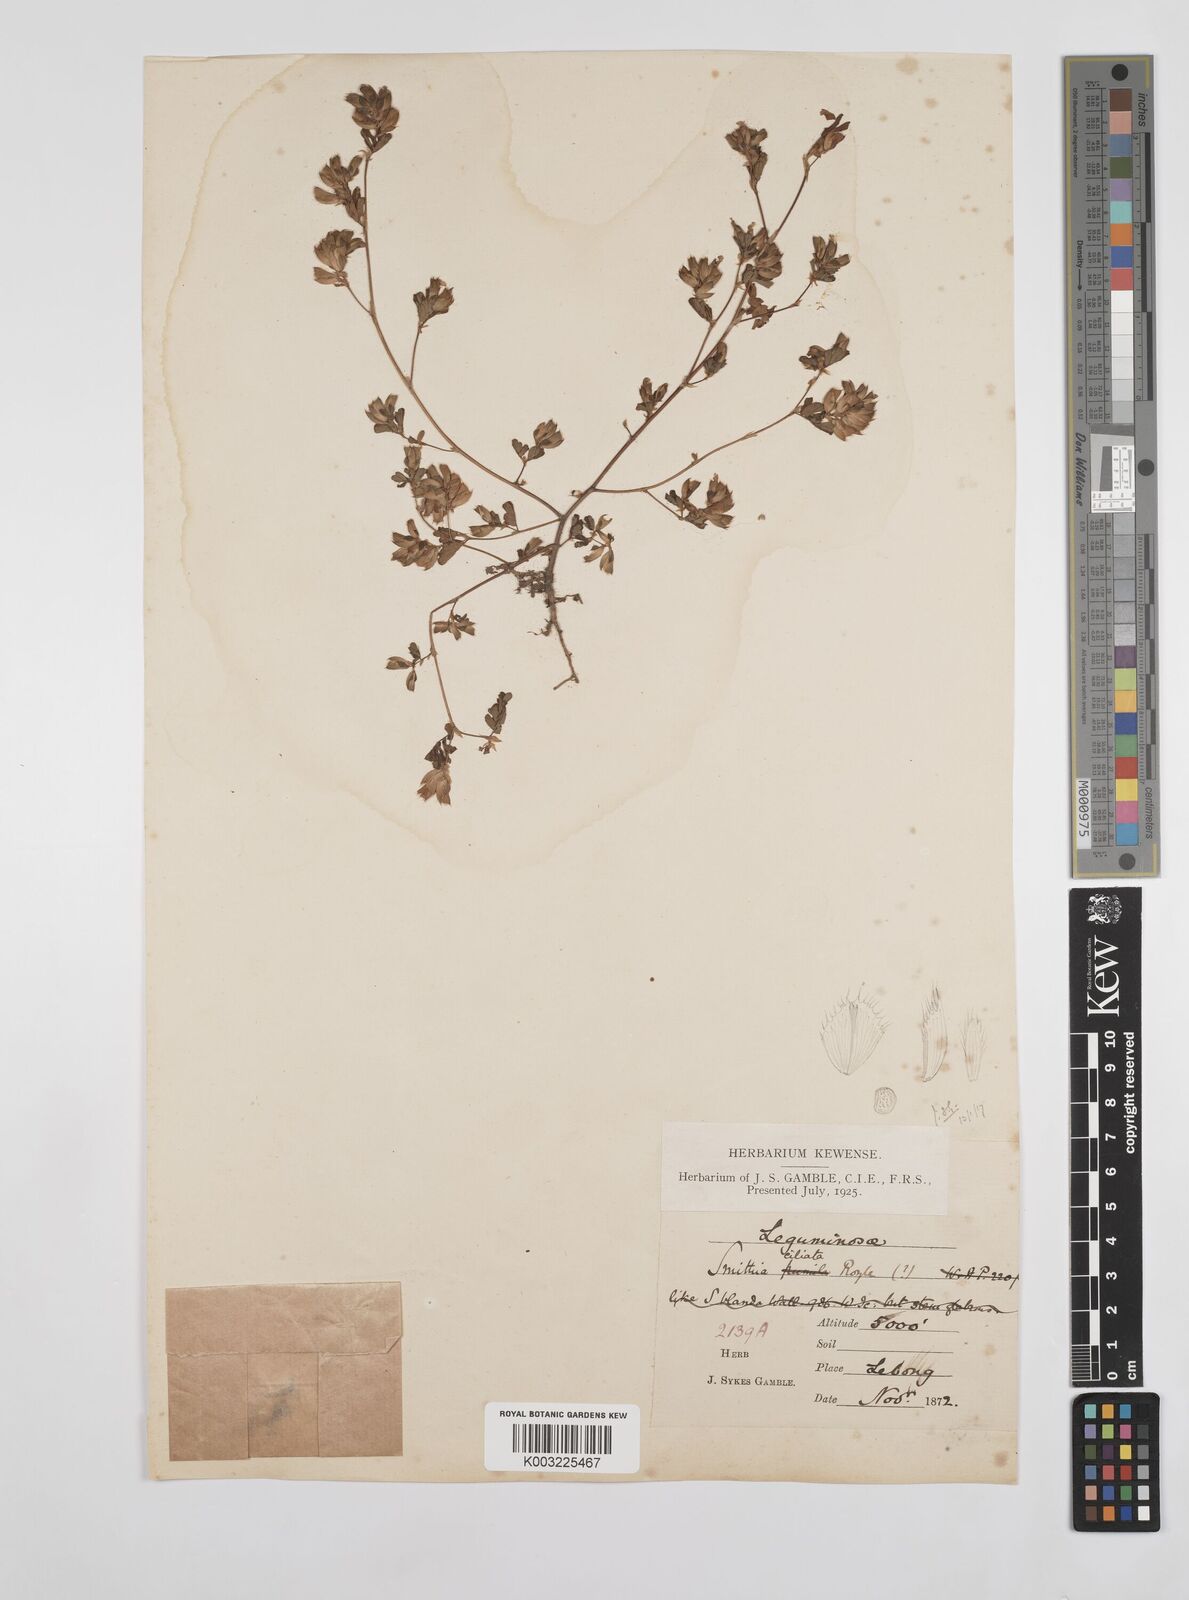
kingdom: Plantae
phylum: Tracheophyta
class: Magnoliopsida
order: Fabales
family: Fabaceae
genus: Smithia
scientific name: Smithia ciliata
